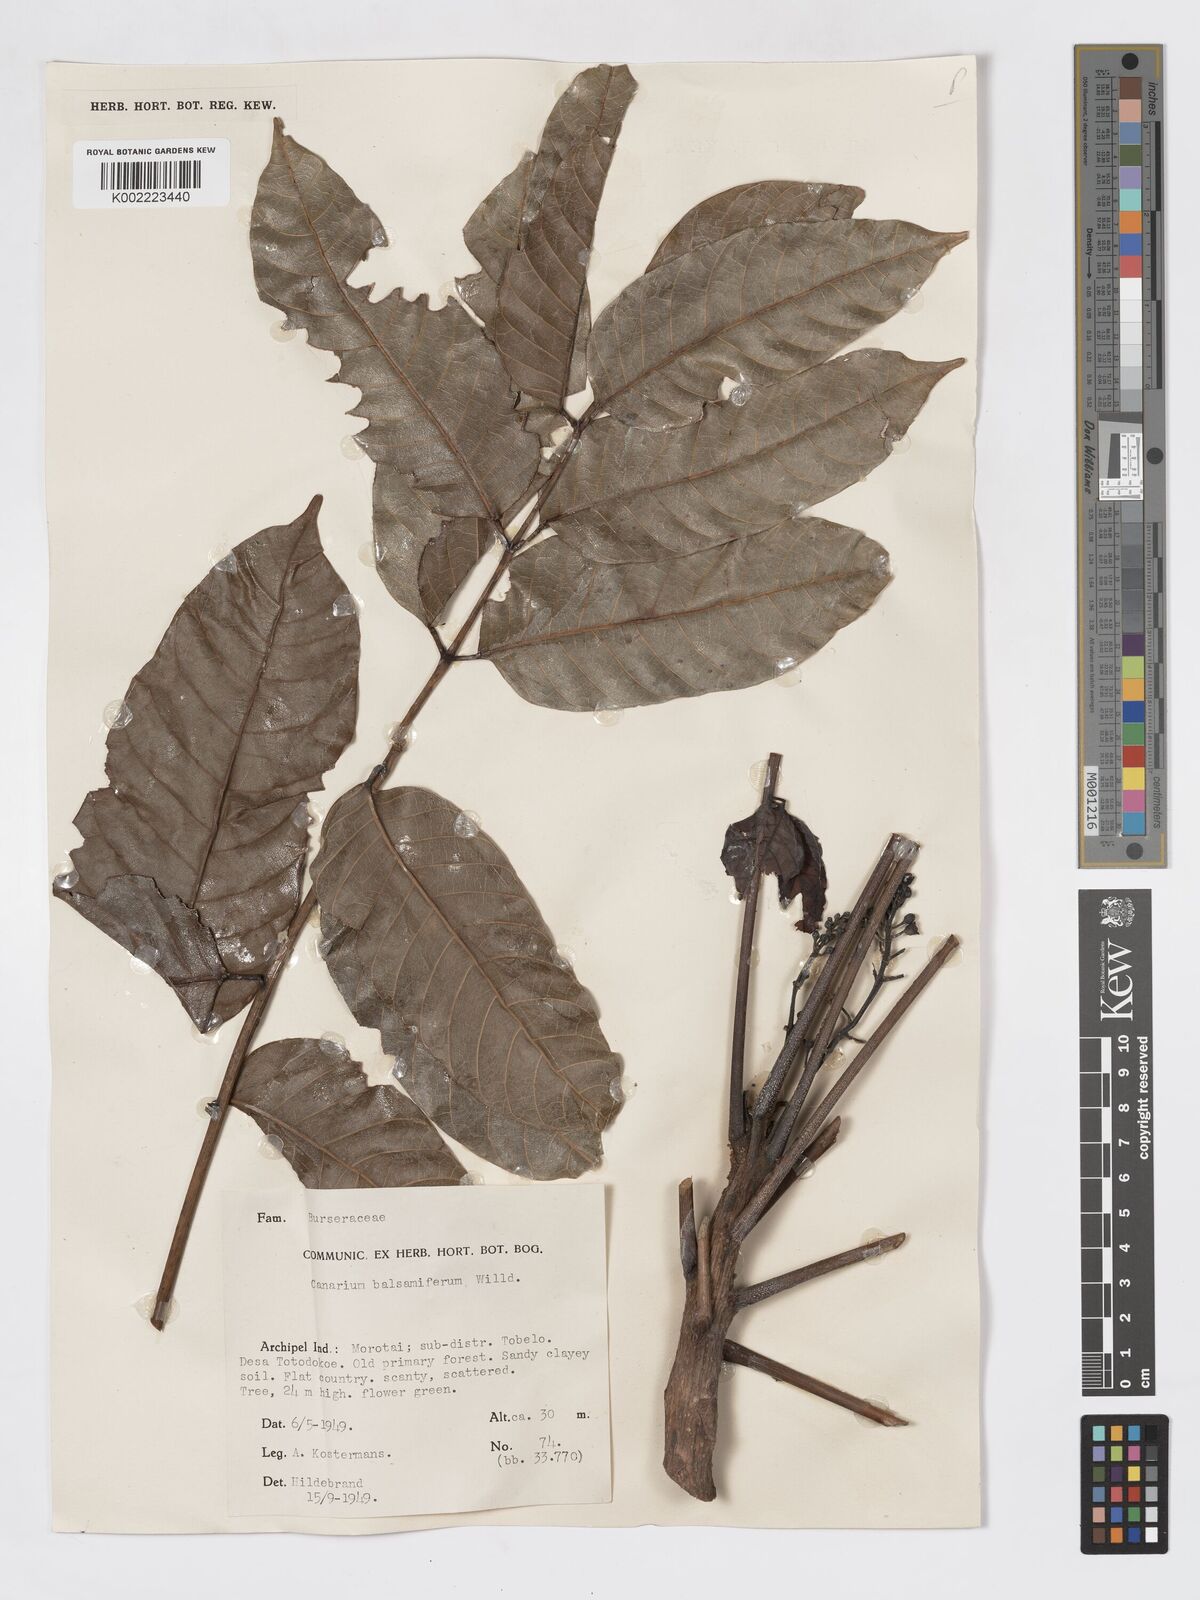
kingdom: Plantae
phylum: Tracheophyta
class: Magnoliopsida
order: Sapindales
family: Burseraceae
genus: Canarium
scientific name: Canarium
